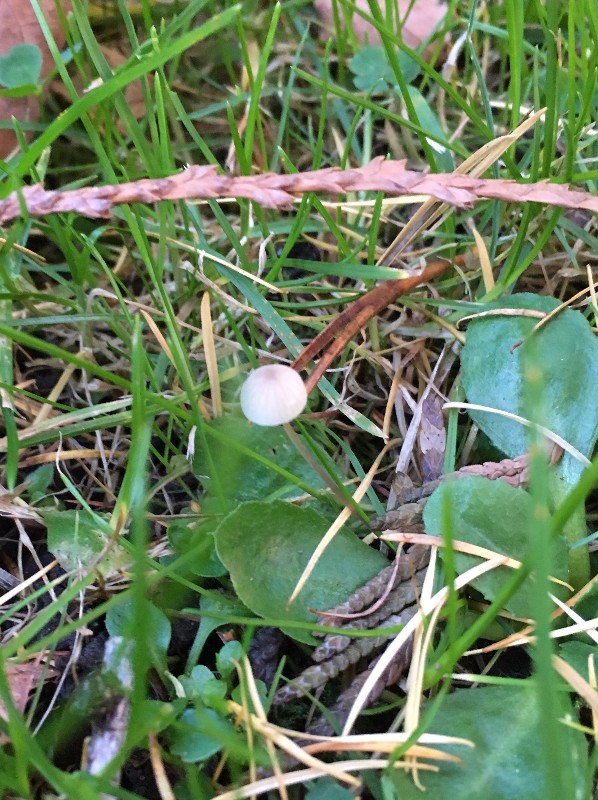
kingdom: Fungi
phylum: Basidiomycota
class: Agaricomycetes
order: Agaricales
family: Mycenaceae
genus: Hemimycena
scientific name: Hemimycena
